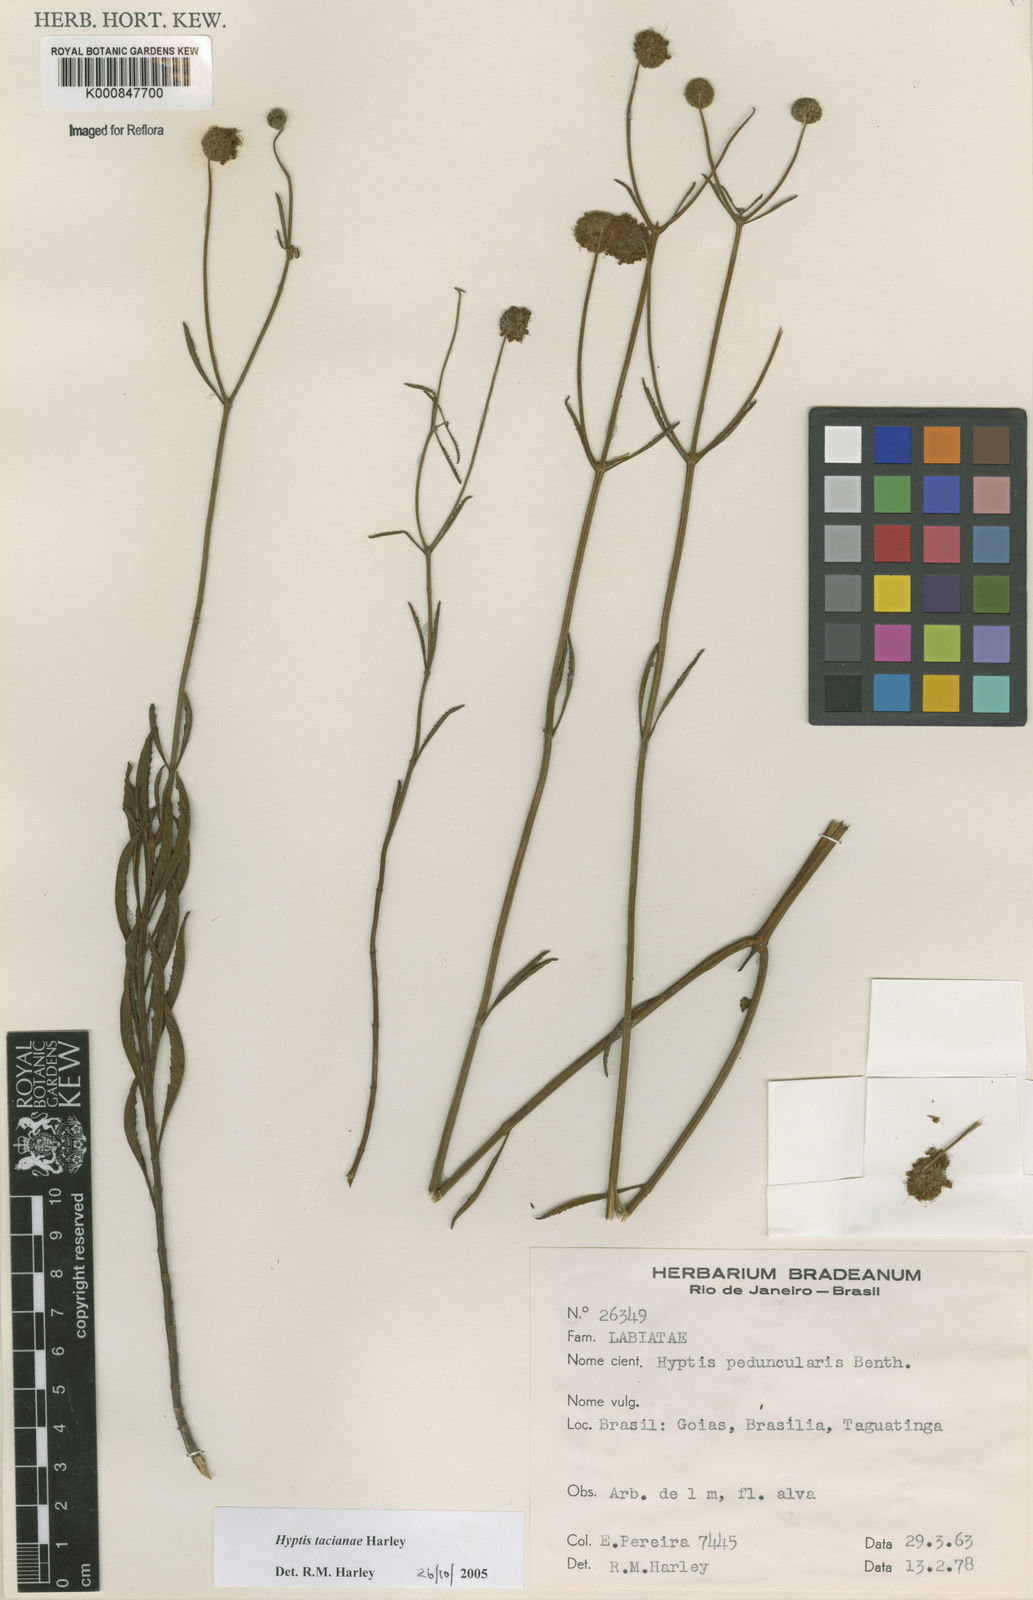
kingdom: Plantae
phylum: Tracheophyta
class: Magnoliopsida
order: Lamiales
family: Lamiaceae
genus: Cyanocephalus
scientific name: Cyanocephalus tacianae
